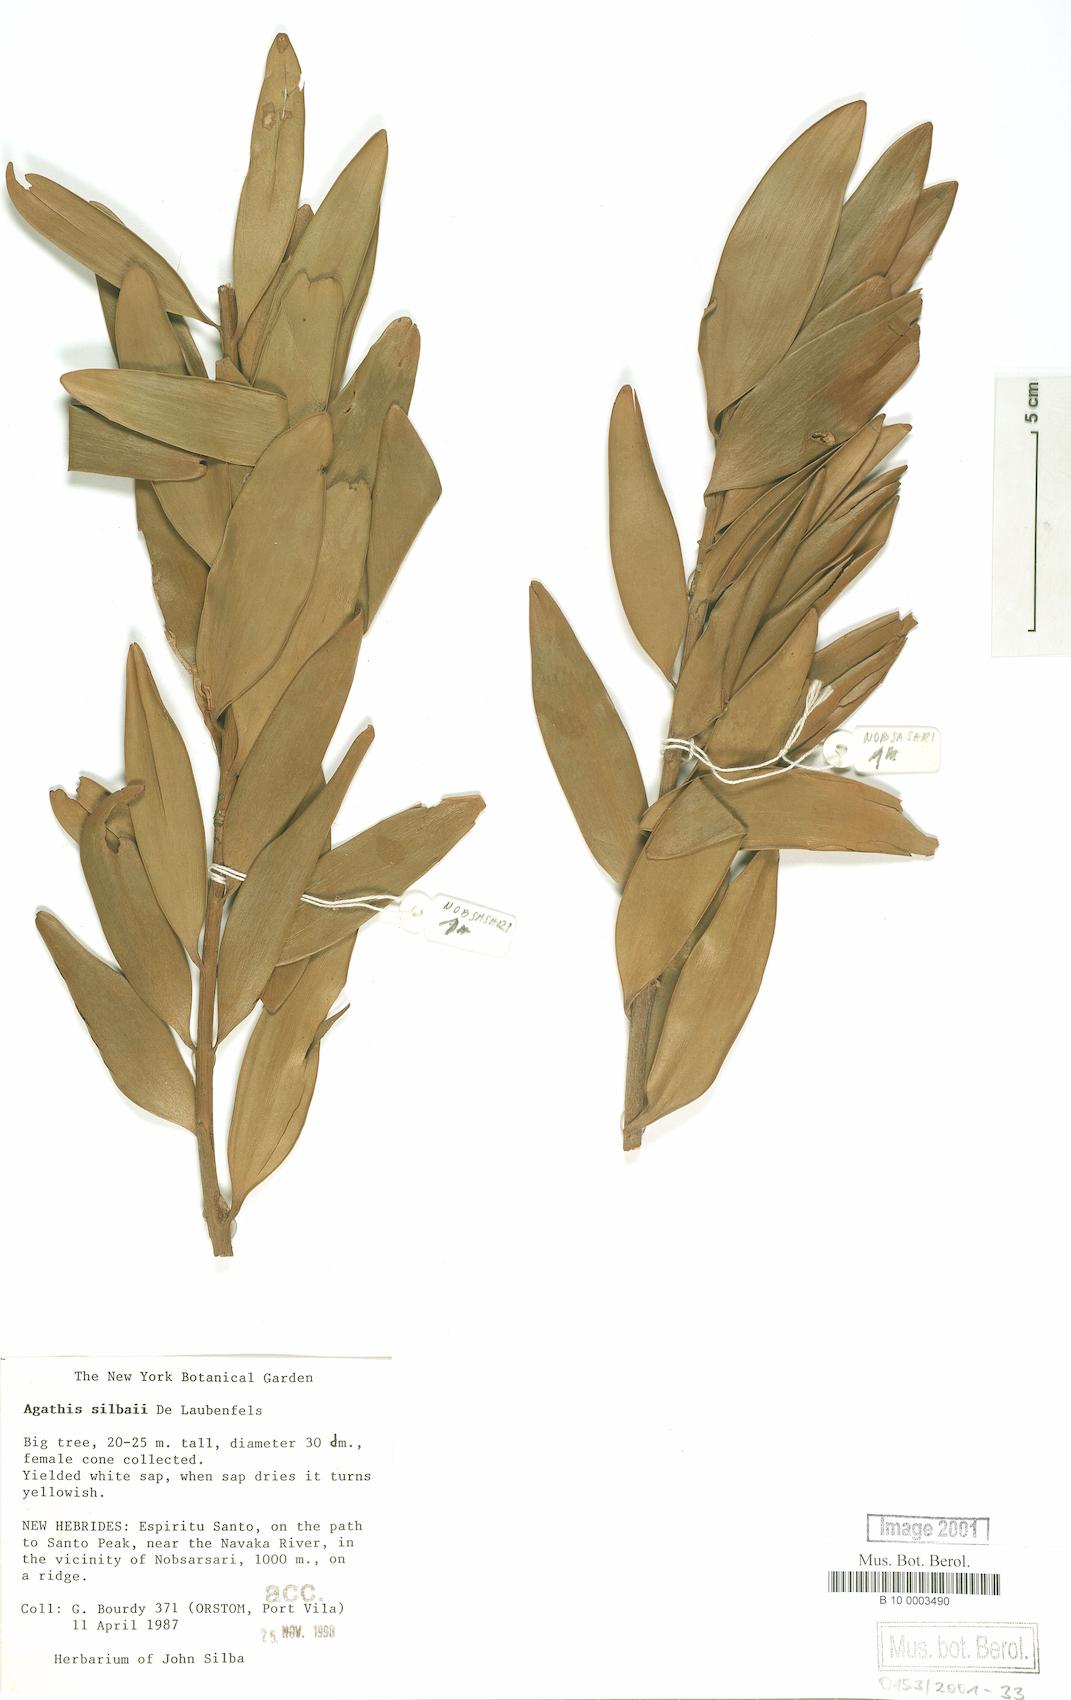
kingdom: Plantae
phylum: Tracheophyta
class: Pinopsida
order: Pinales
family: Araucariaceae
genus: Agathis
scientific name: Agathis silbae
